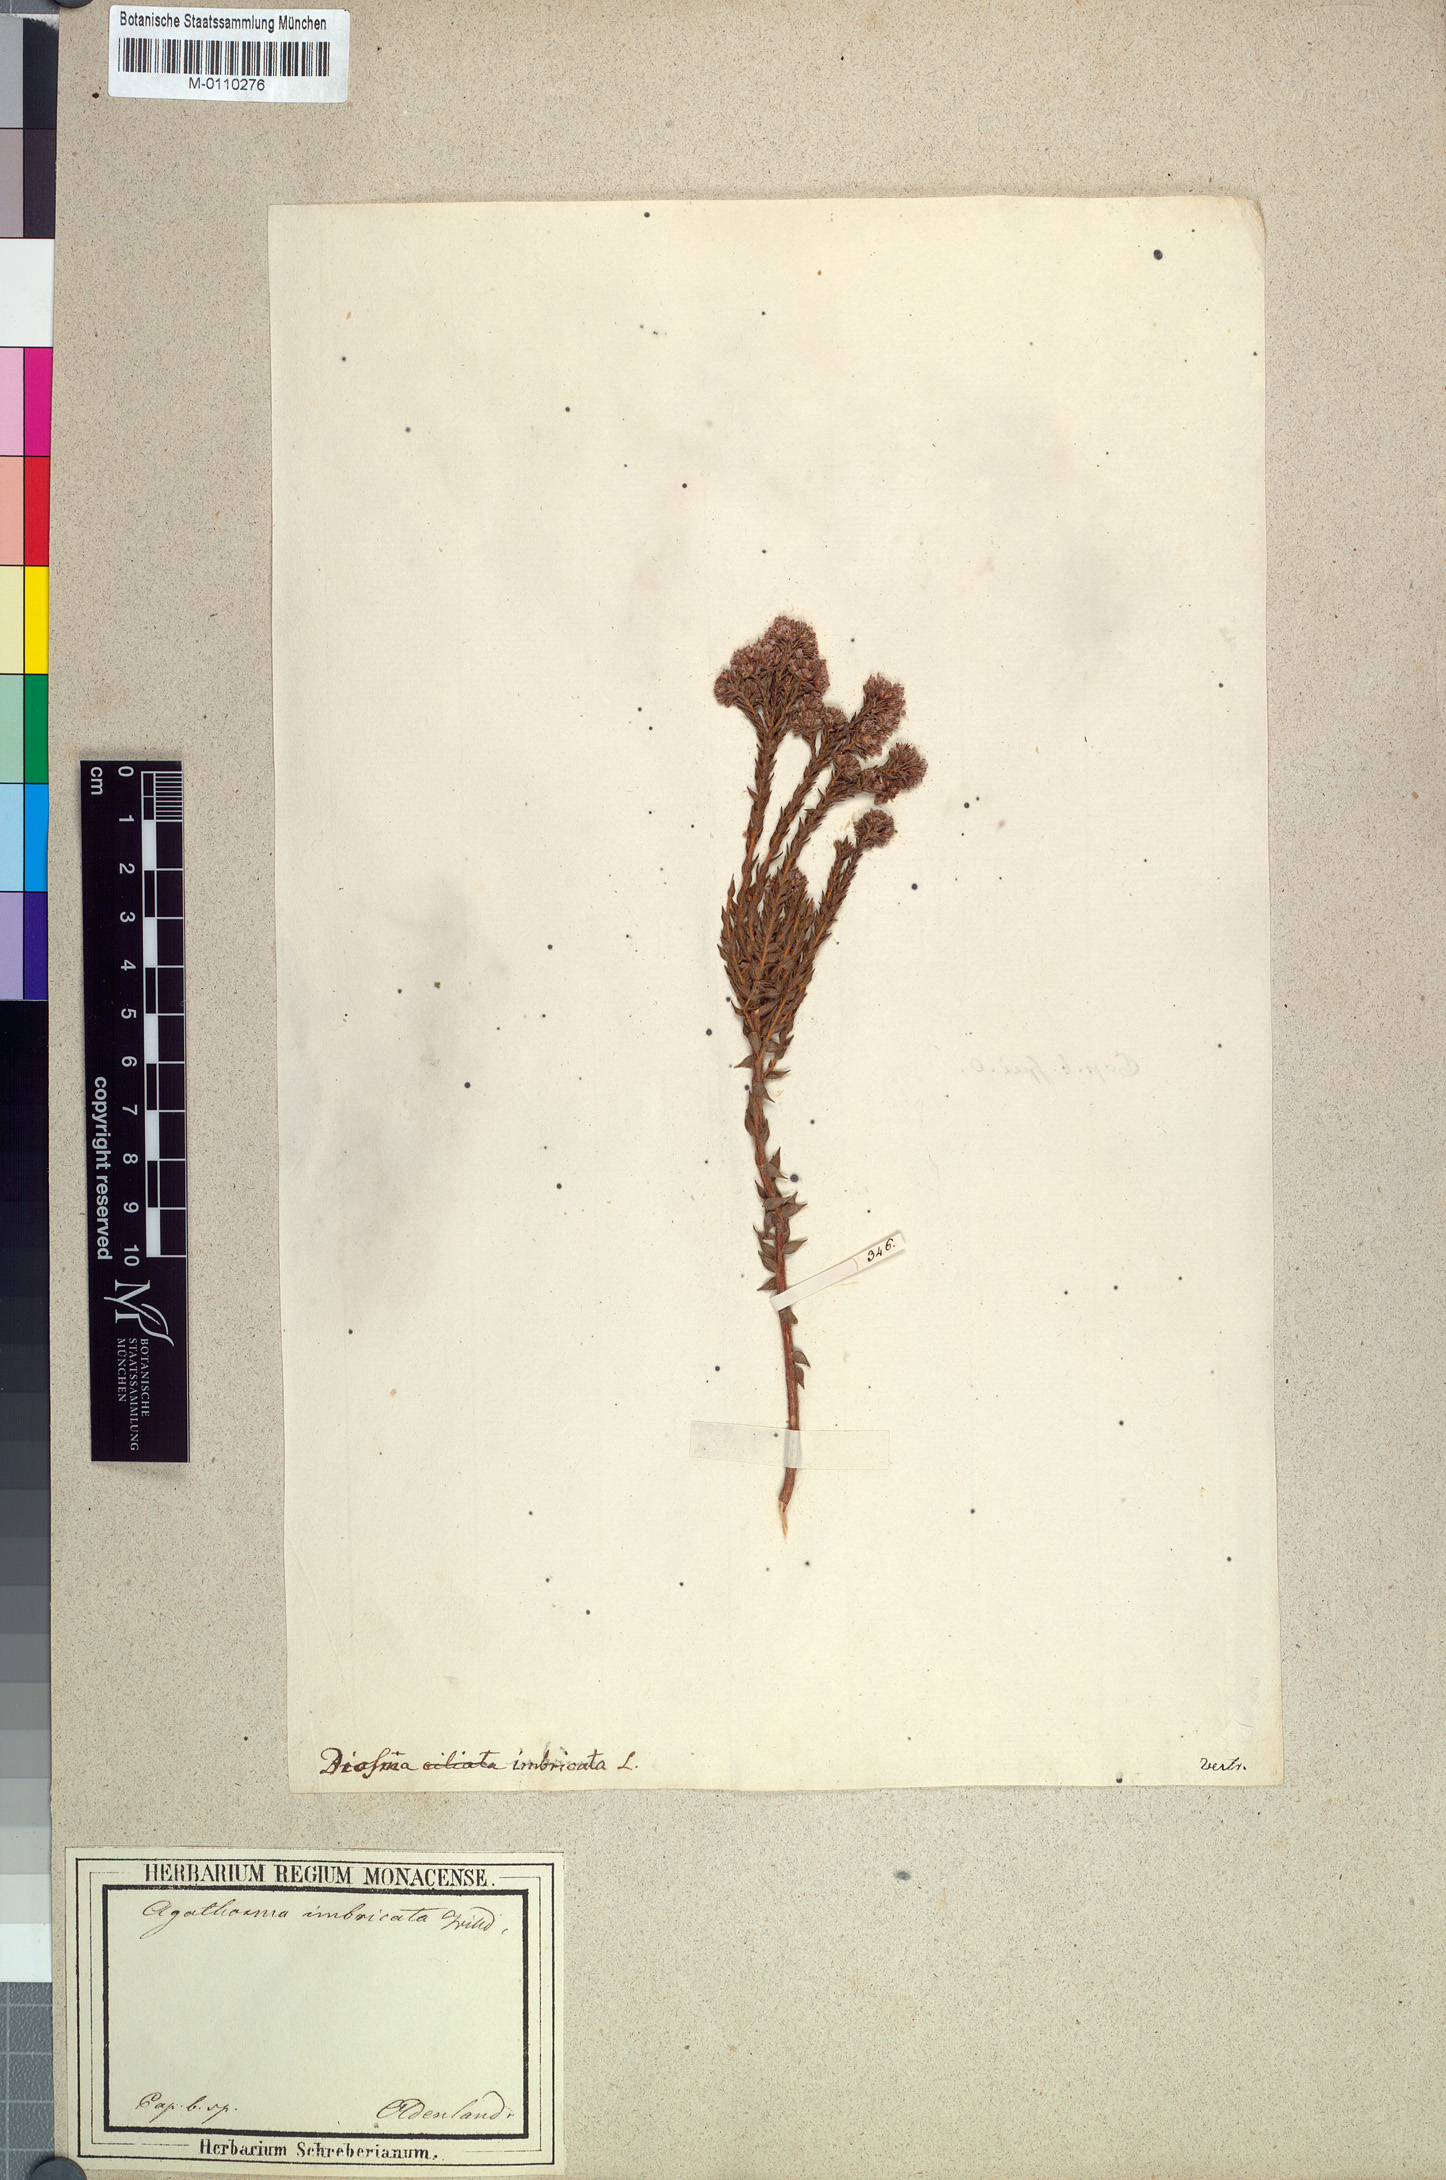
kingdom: Plantae
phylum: Tracheophyta
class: Magnoliopsida
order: Sapindales
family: Rutaceae
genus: Agathosma
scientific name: Agathosma imbricata
